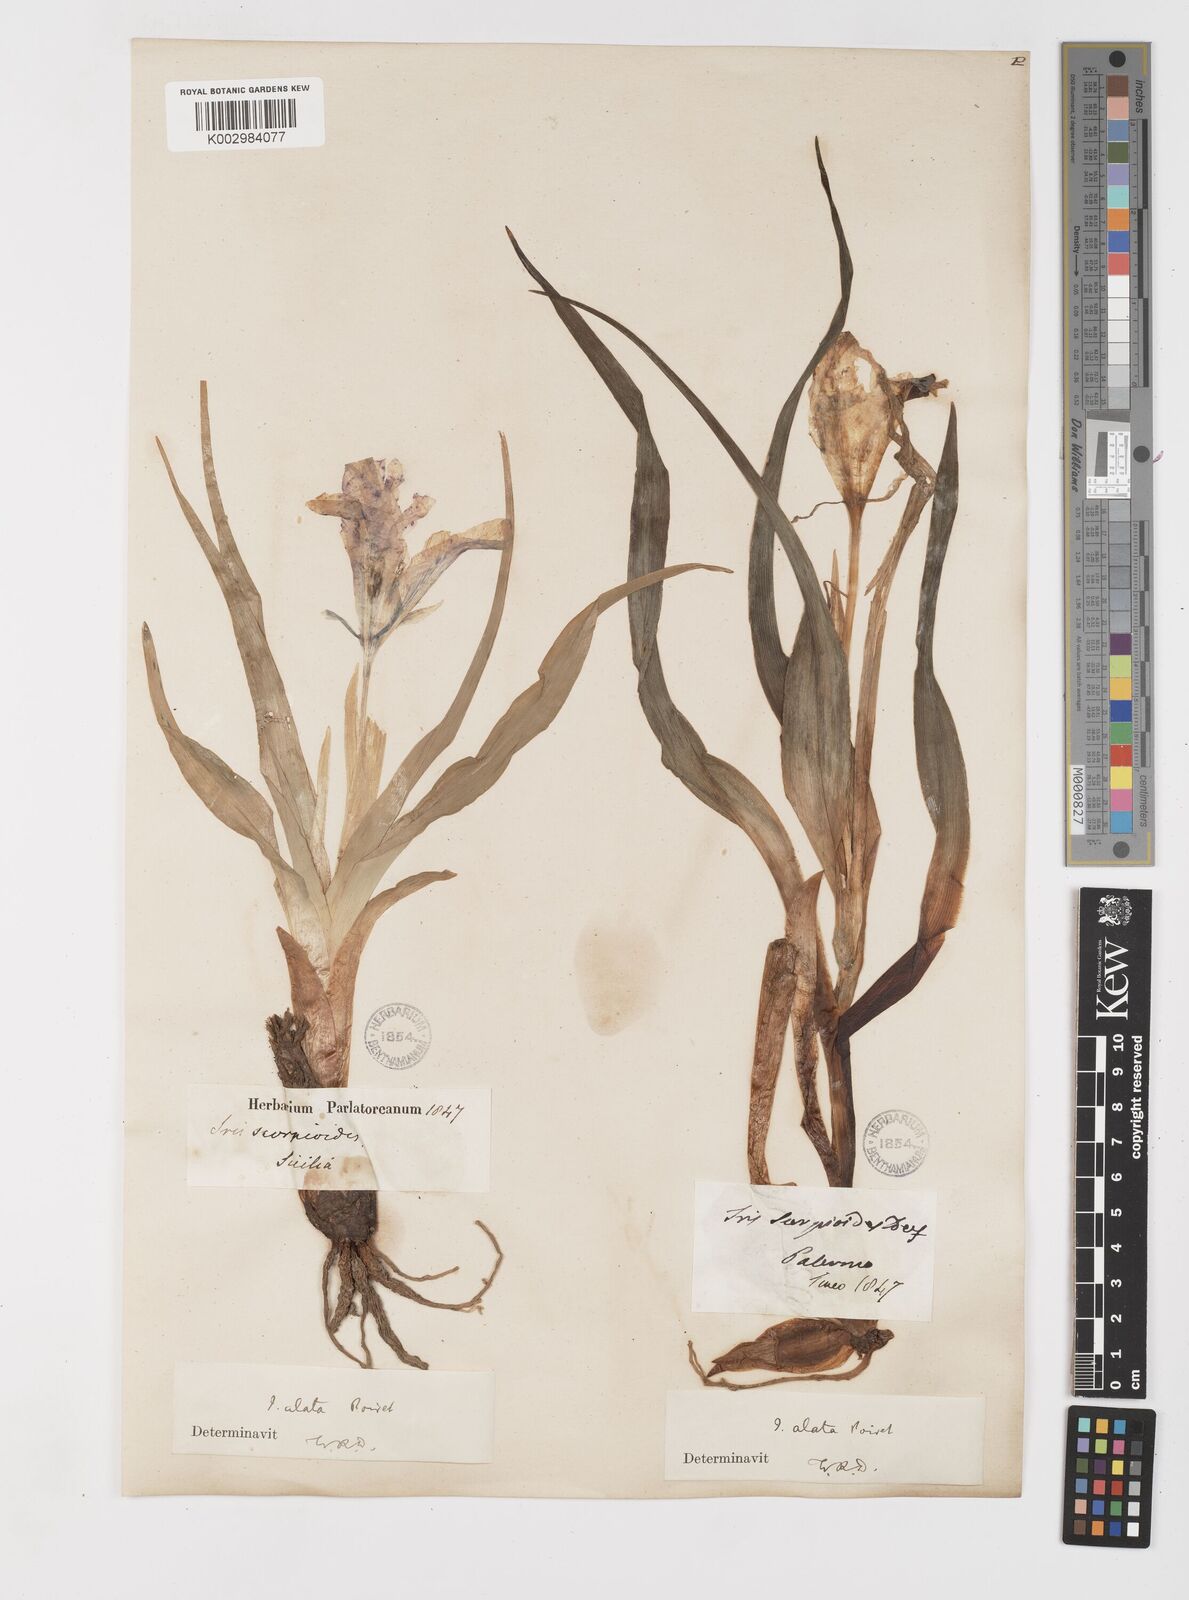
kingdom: Plantae
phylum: Tracheophyta
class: Liliopsida
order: Asparagales
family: Iridaceae
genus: Iris
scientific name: Iris planifolia
